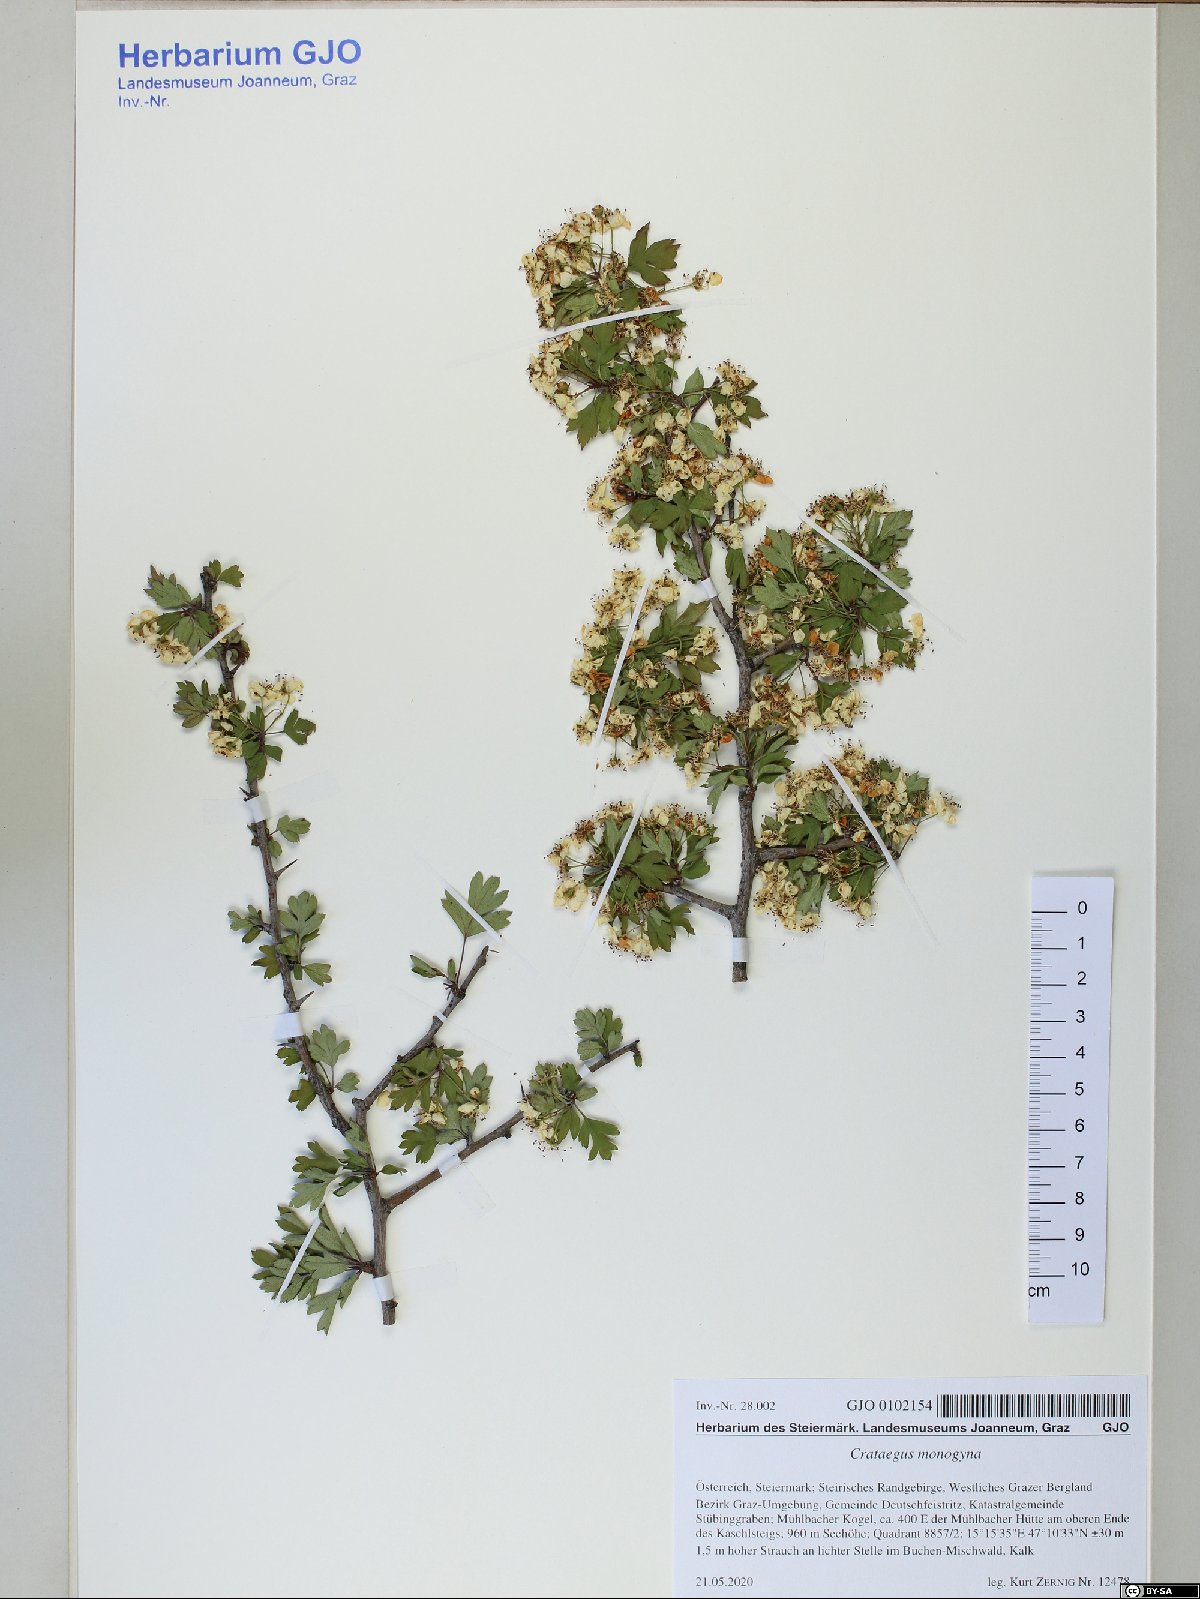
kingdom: Plantae
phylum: Tracheophyta
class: Magnoliopsida
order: Rosales
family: Rosaceae
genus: Crataegus
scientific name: Crataegus monogyna
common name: Hawthorn
